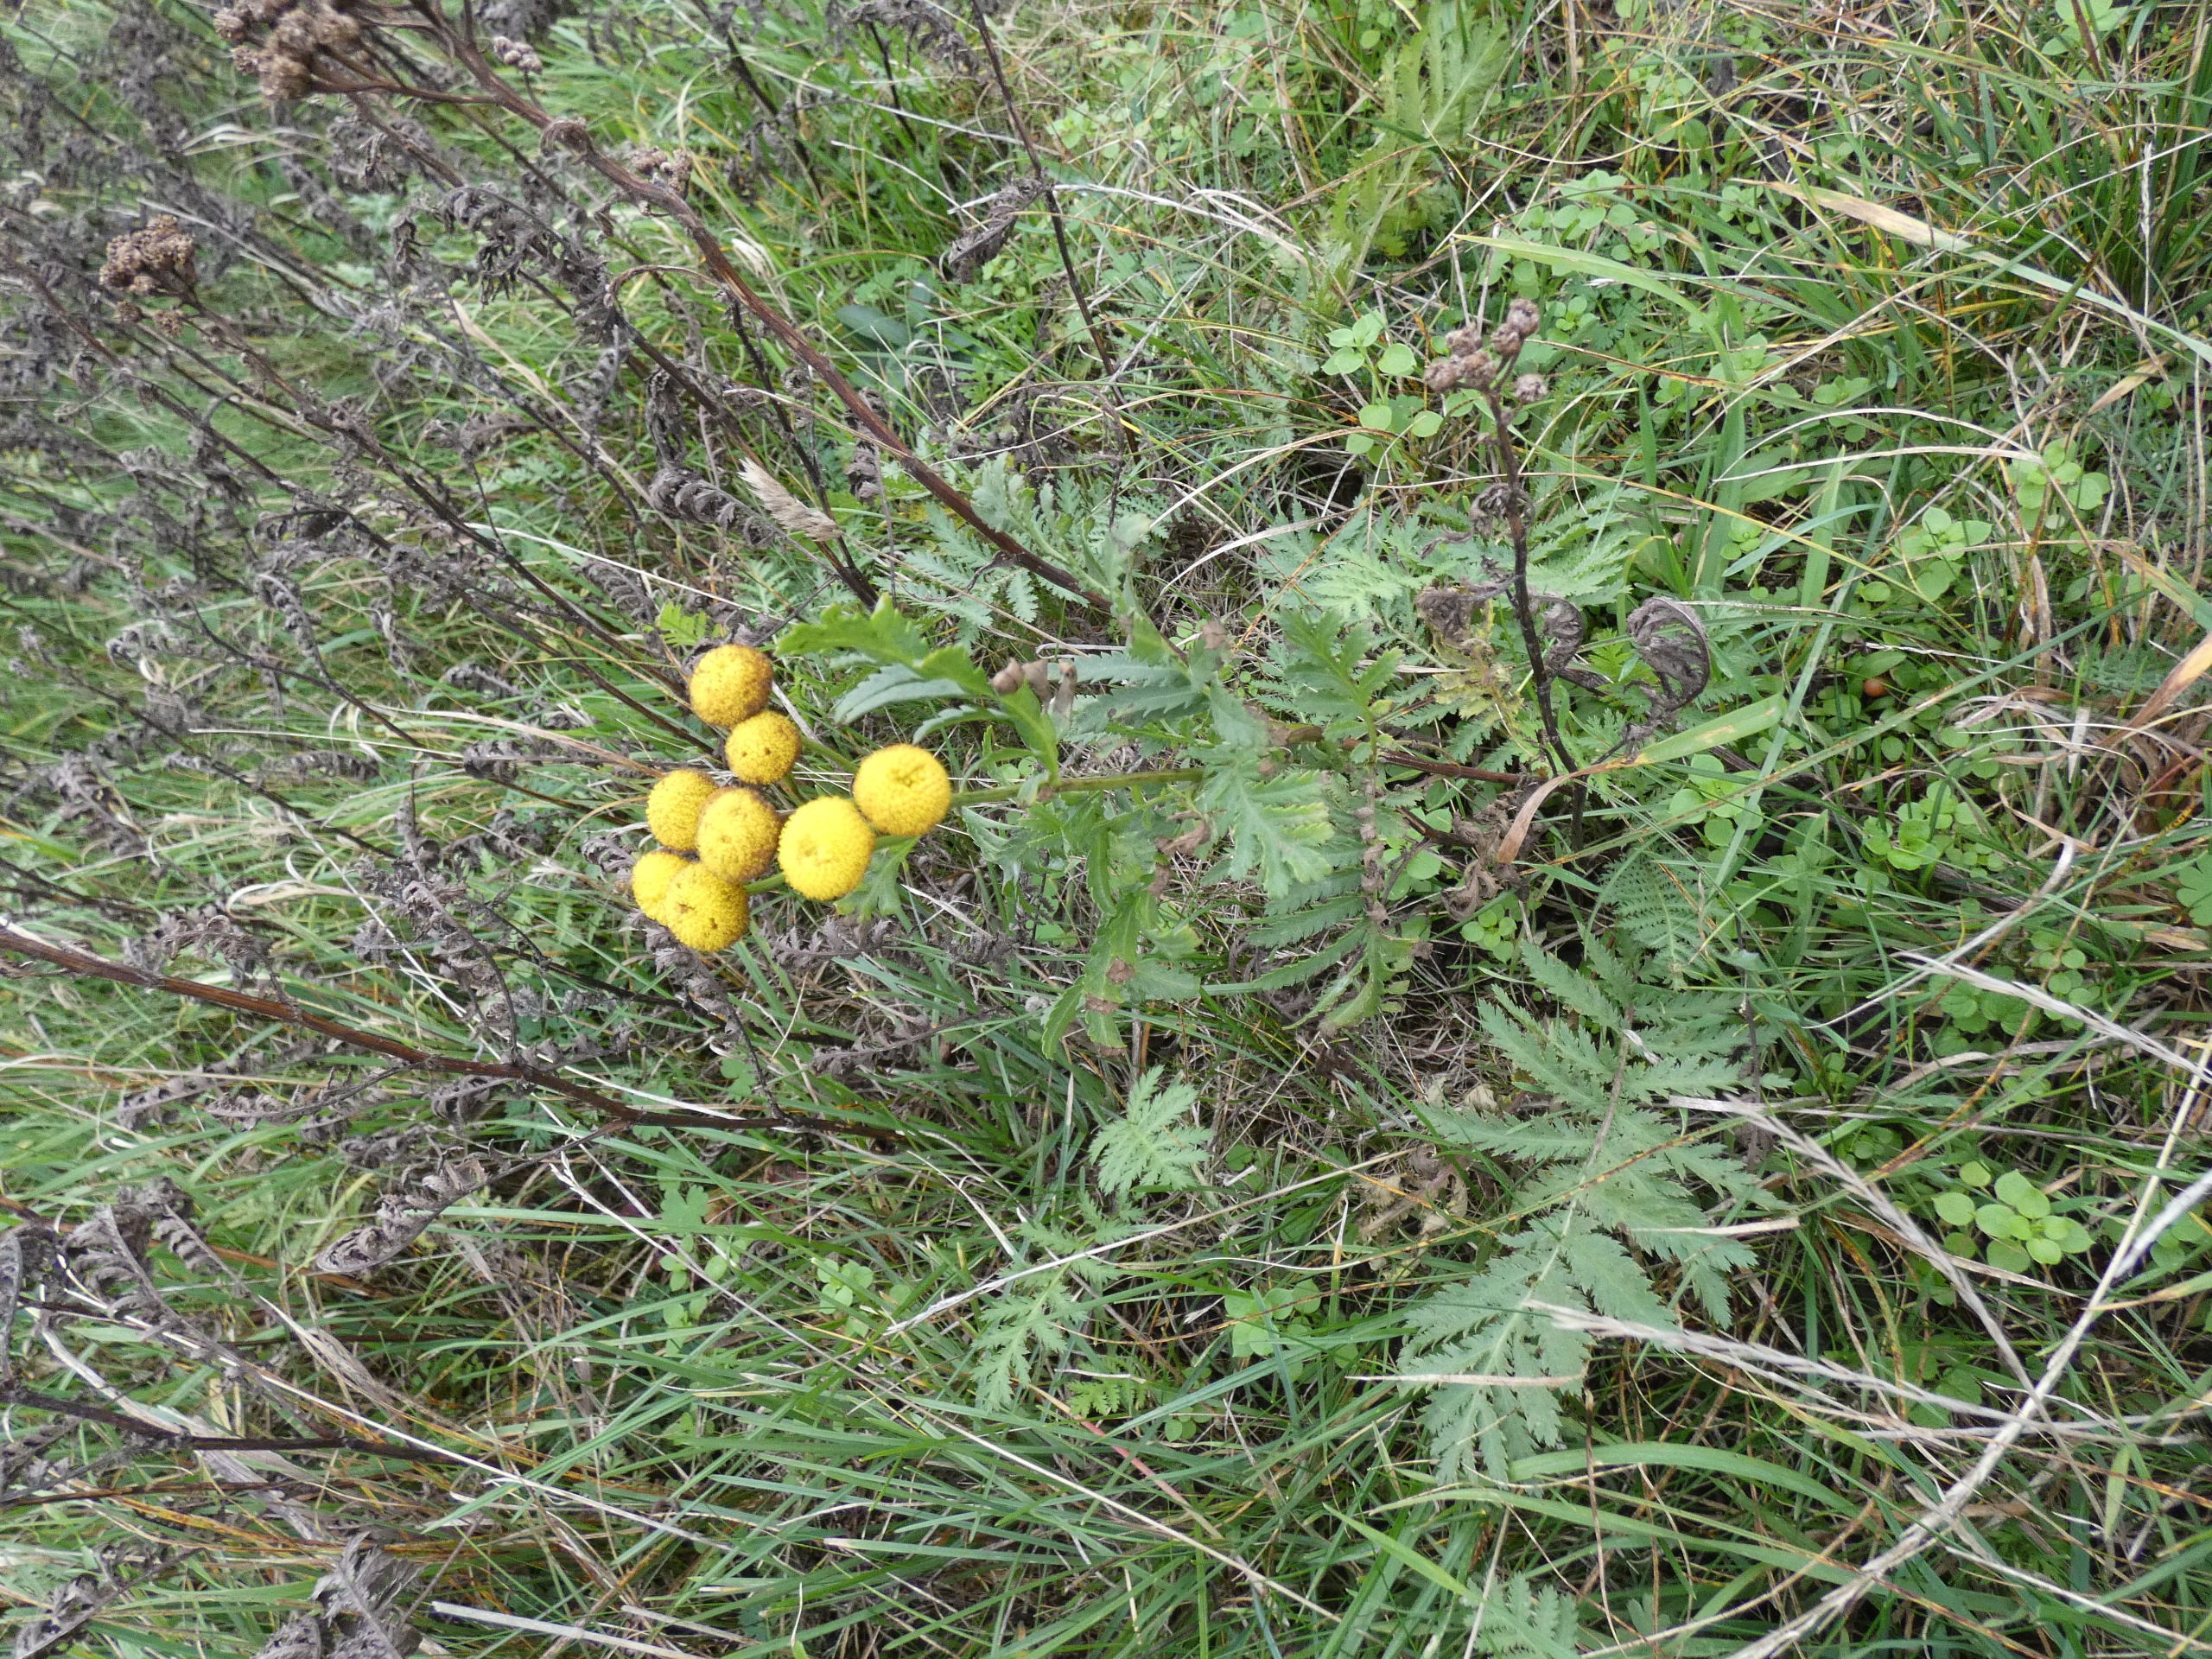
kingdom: Plantae
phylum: Tracheophyta
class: Magnoliopsida
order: Asterales
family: Asteraceae
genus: Tanacetum
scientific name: Tanacetum vulgare
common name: Rejnfan
